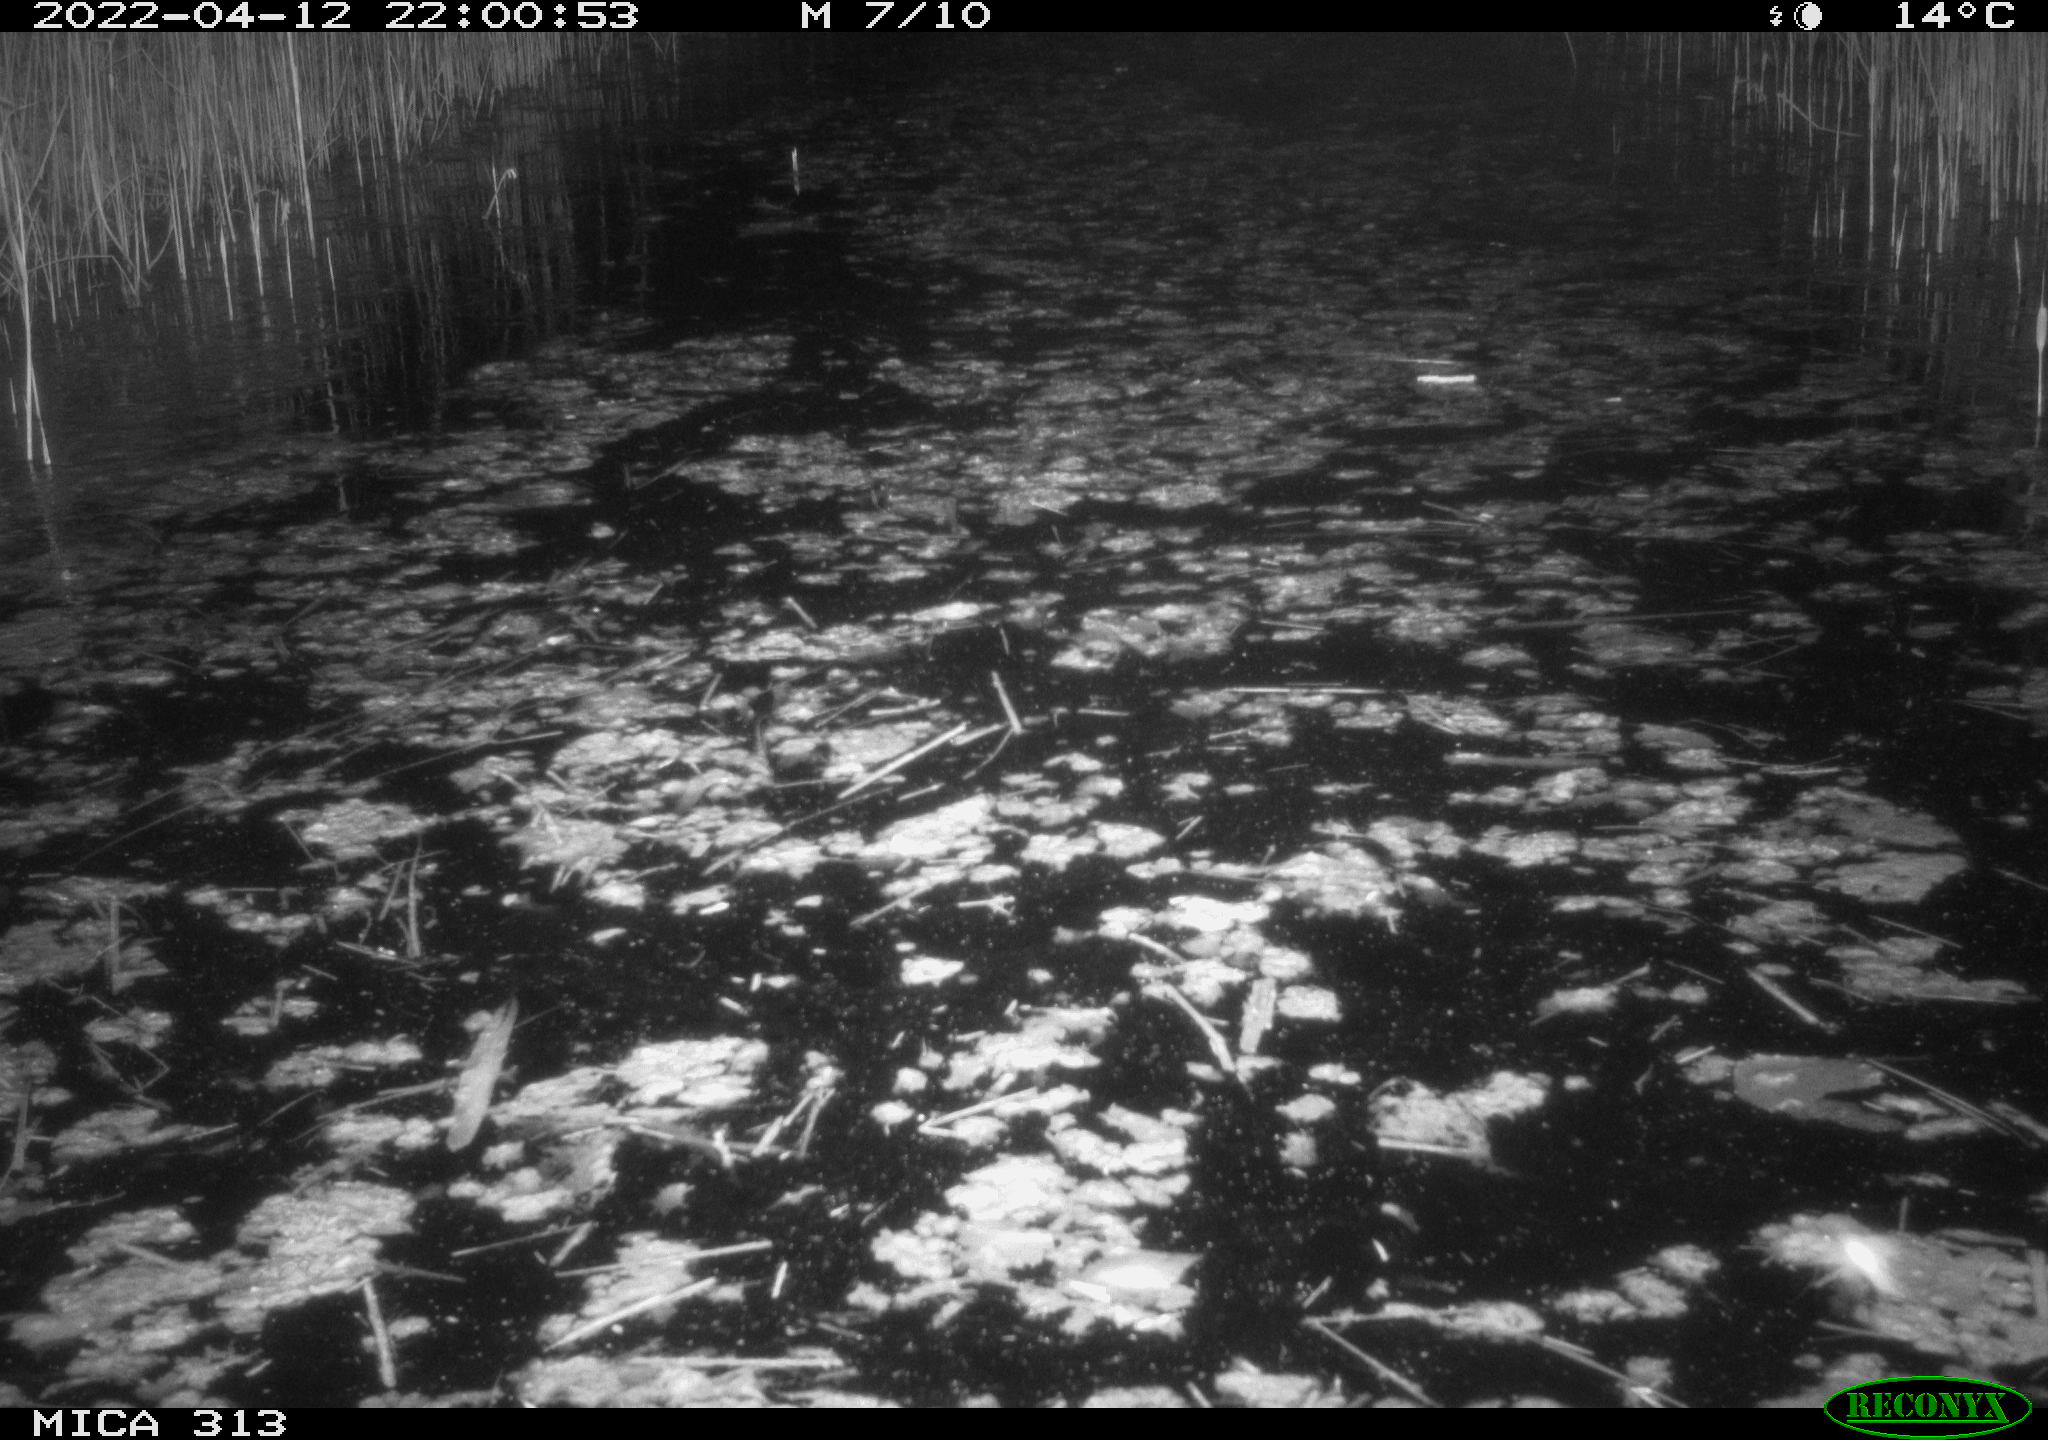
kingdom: Animalia
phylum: Chordata
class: Aves
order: Anseriformes
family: Anatidae
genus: Anas
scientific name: Anas platyrhynchos
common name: Mallard
